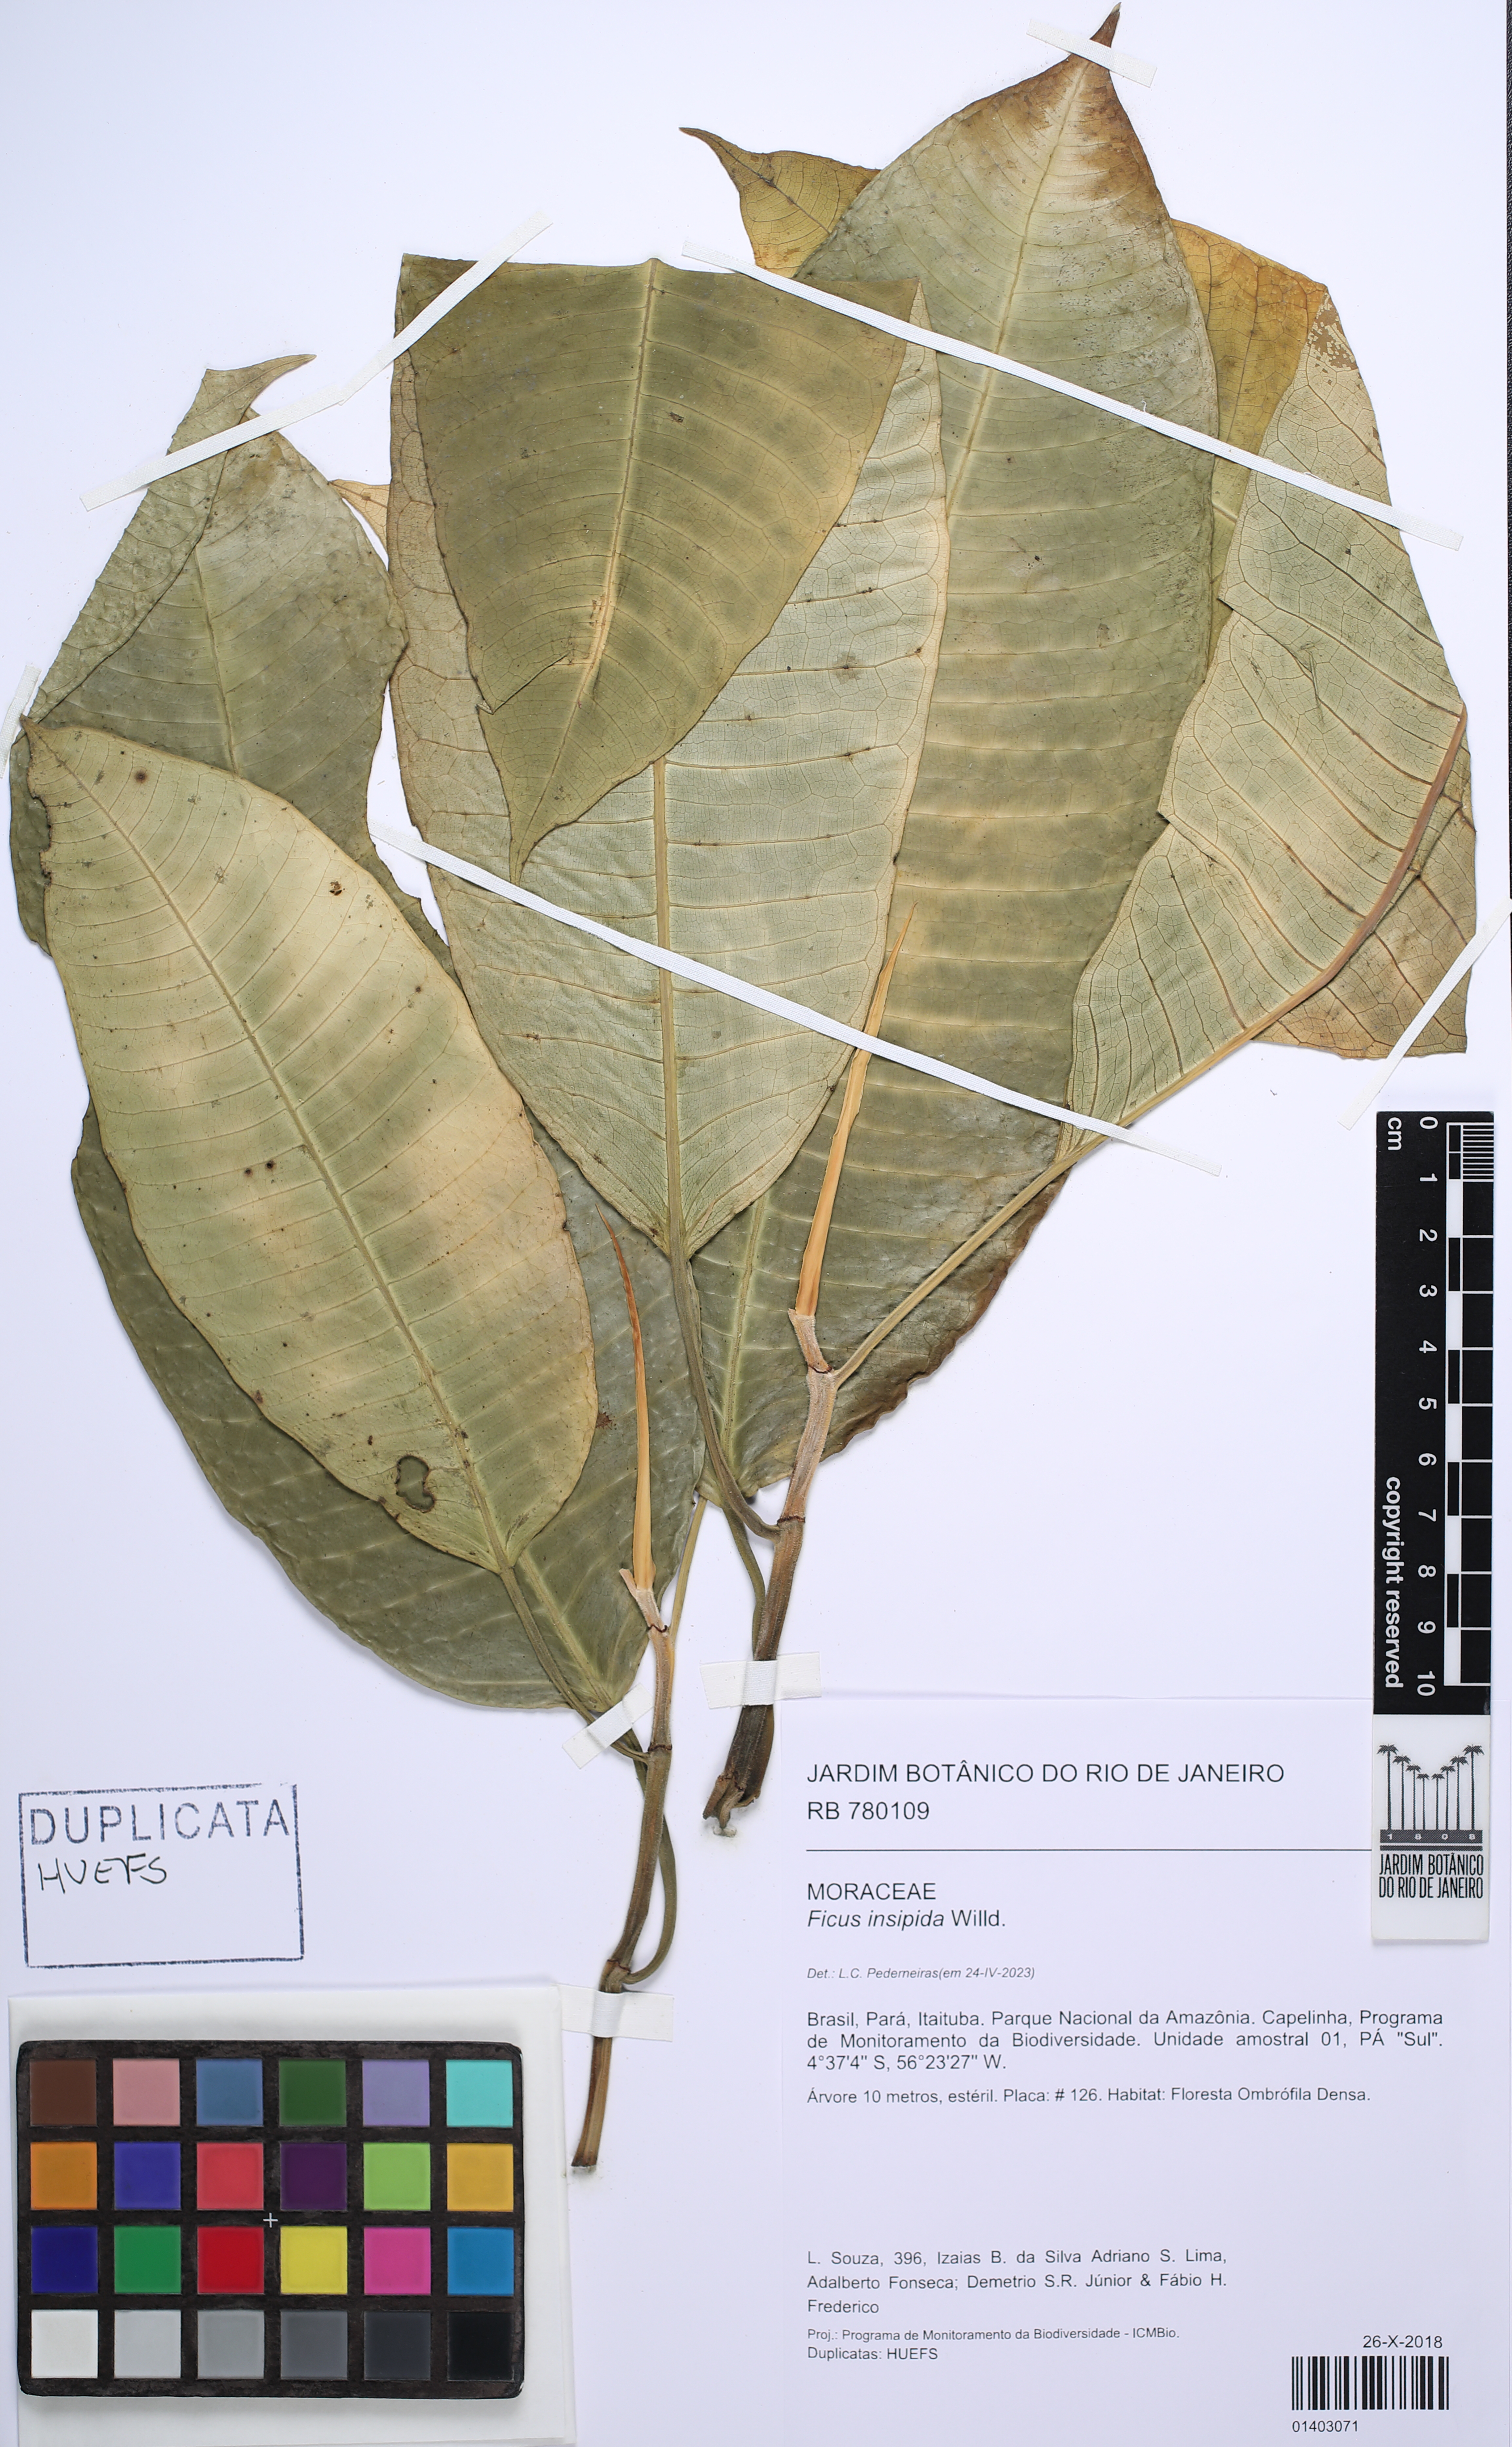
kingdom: Plantae
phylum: Tracheophyta
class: Magnoliopsida
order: Rosales
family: Moraceae
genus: Ficus
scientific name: Ficus insipida
